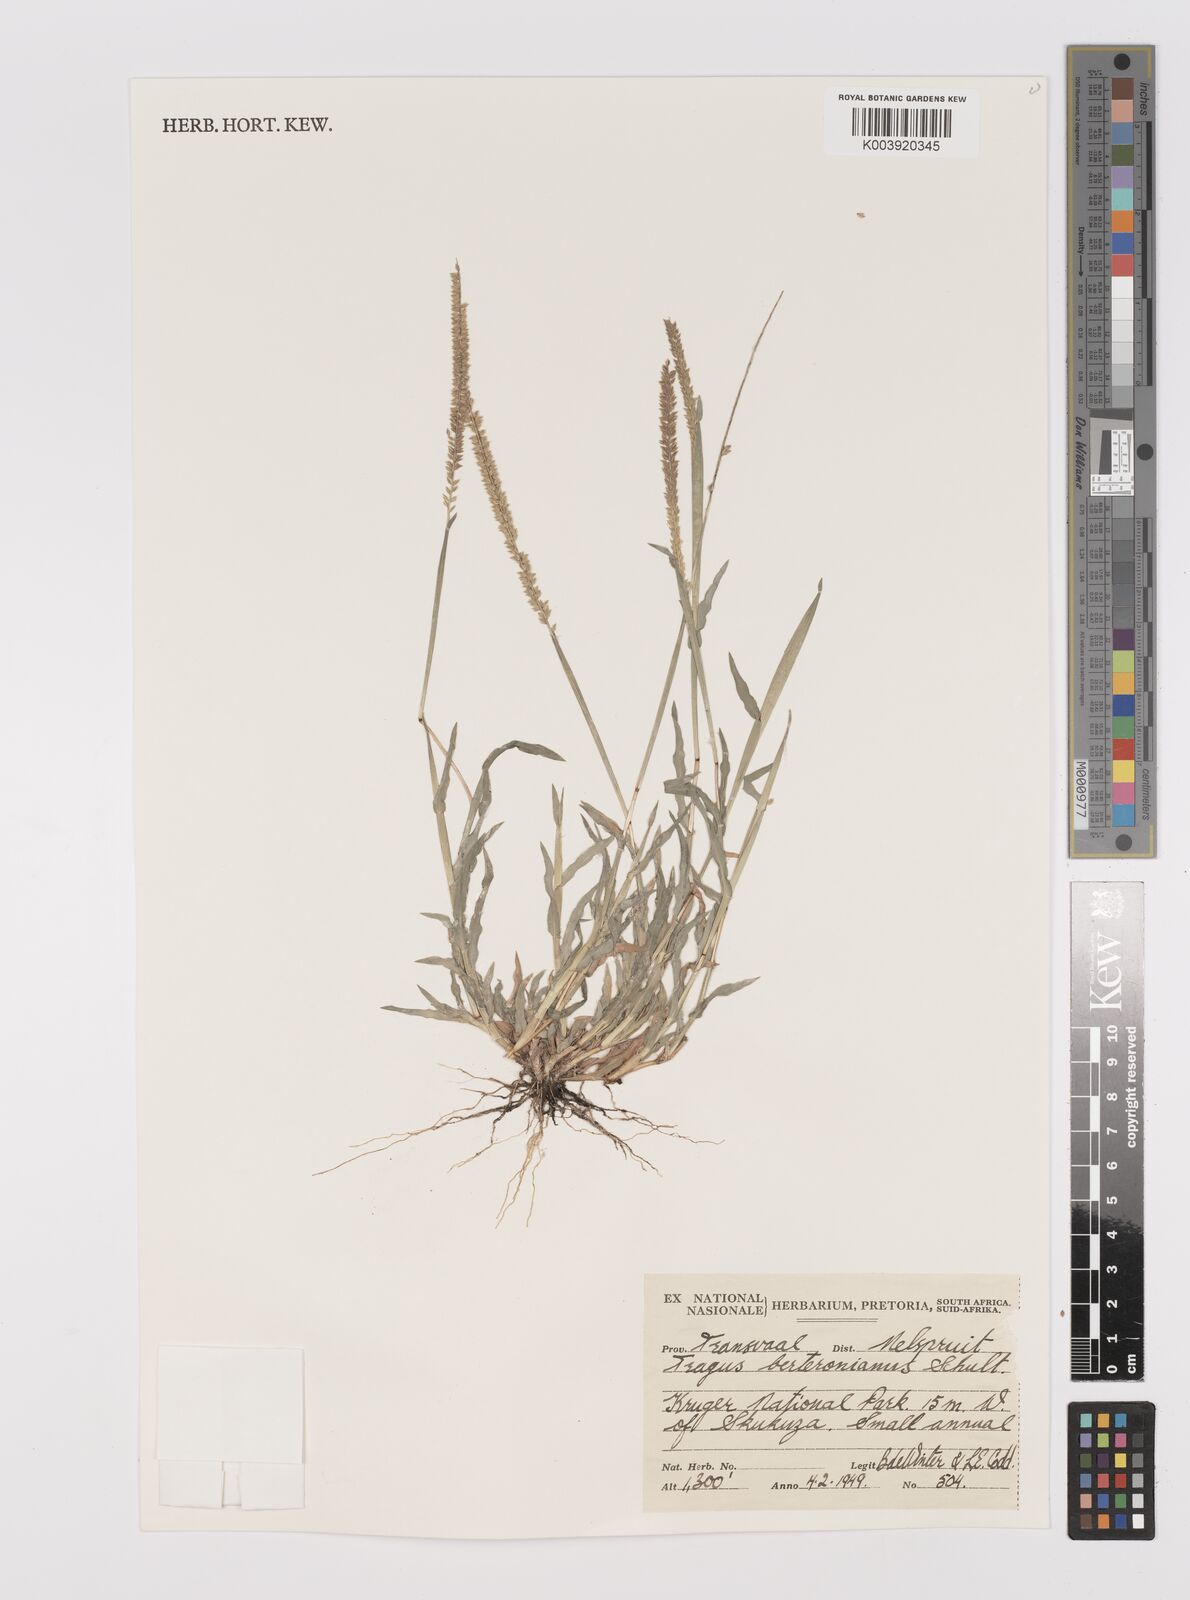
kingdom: Plantae
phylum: Tracheophyta
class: Liliopsida
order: Poales
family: Poaceae
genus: Tragus
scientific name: Tragus berteronianus
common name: African bur-grass
